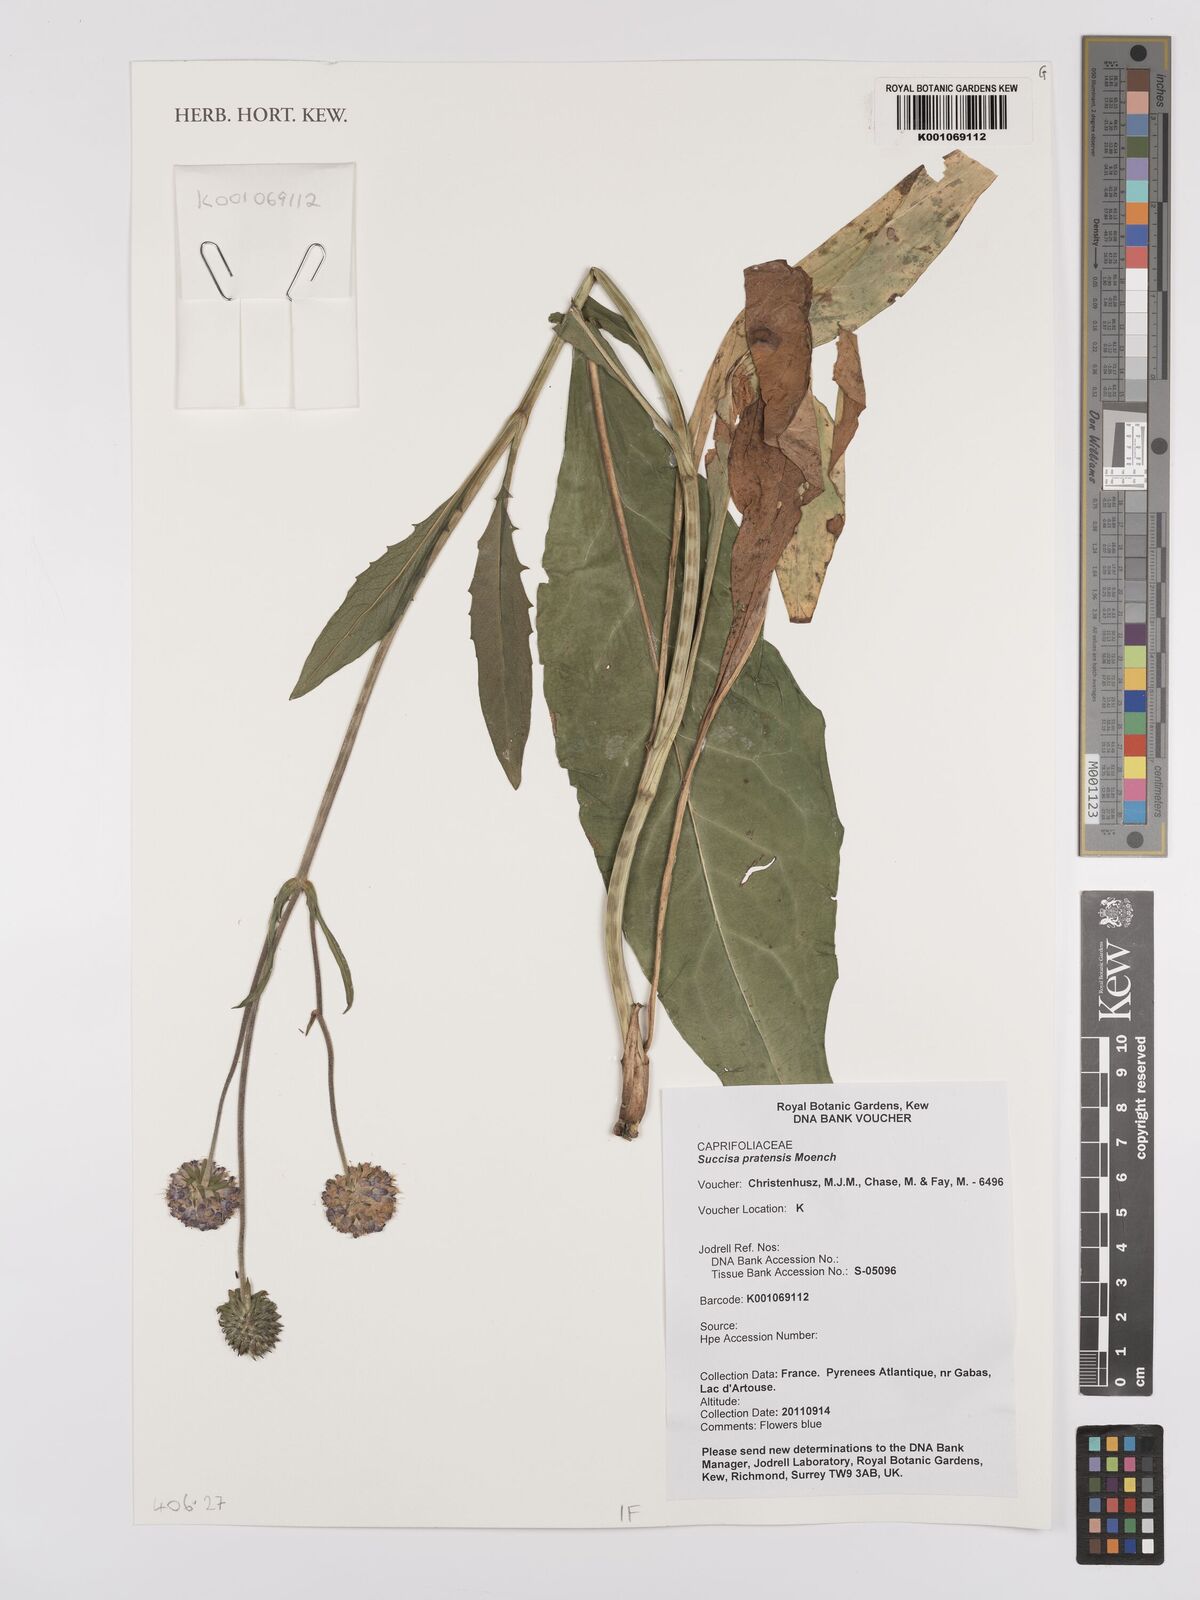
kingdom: Plantae
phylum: Tracheophyta
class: Magnoliopsida
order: Dipsacales
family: Caprifoliaceae
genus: Succisa
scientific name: Succisa pratensis
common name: Devil's-bit
